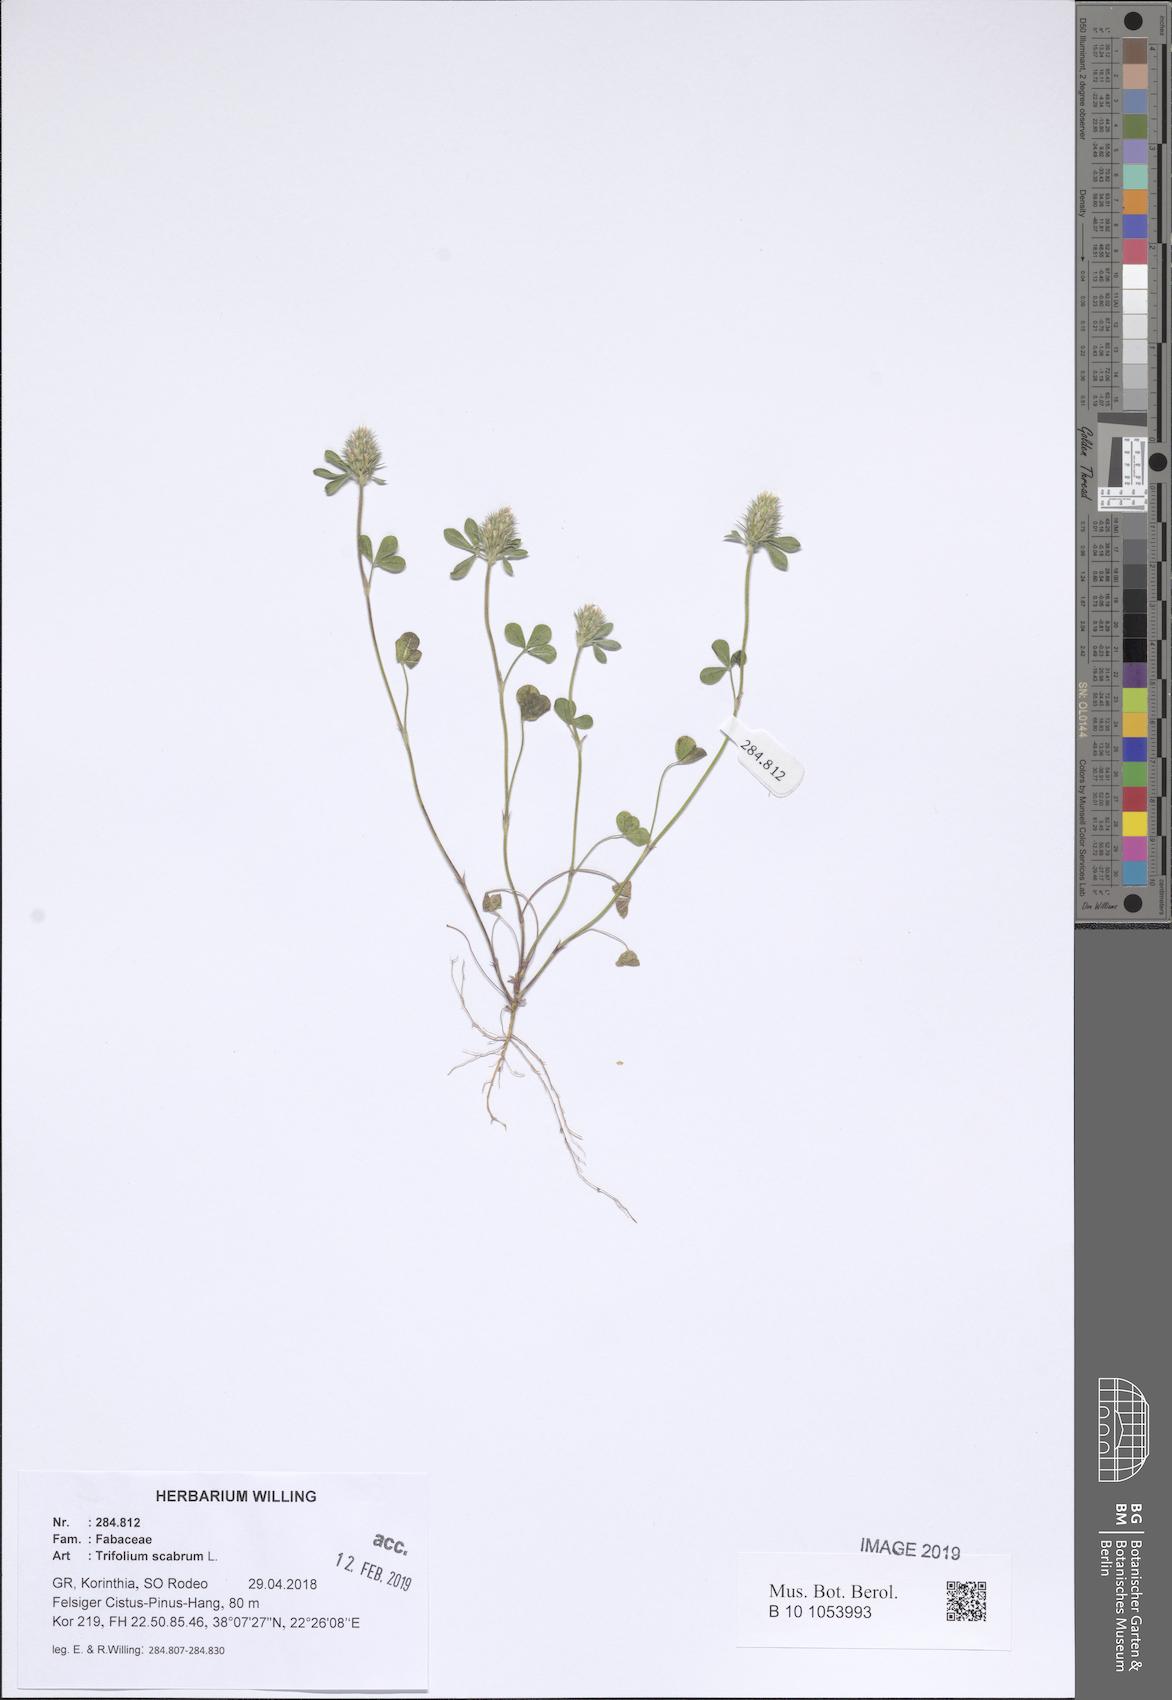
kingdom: Plantae
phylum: Tracheophyta
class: Magnoliopsida
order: Fabales
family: Fabaceae
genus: Trifolium
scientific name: Trifolium scabrum
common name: Rough clover
